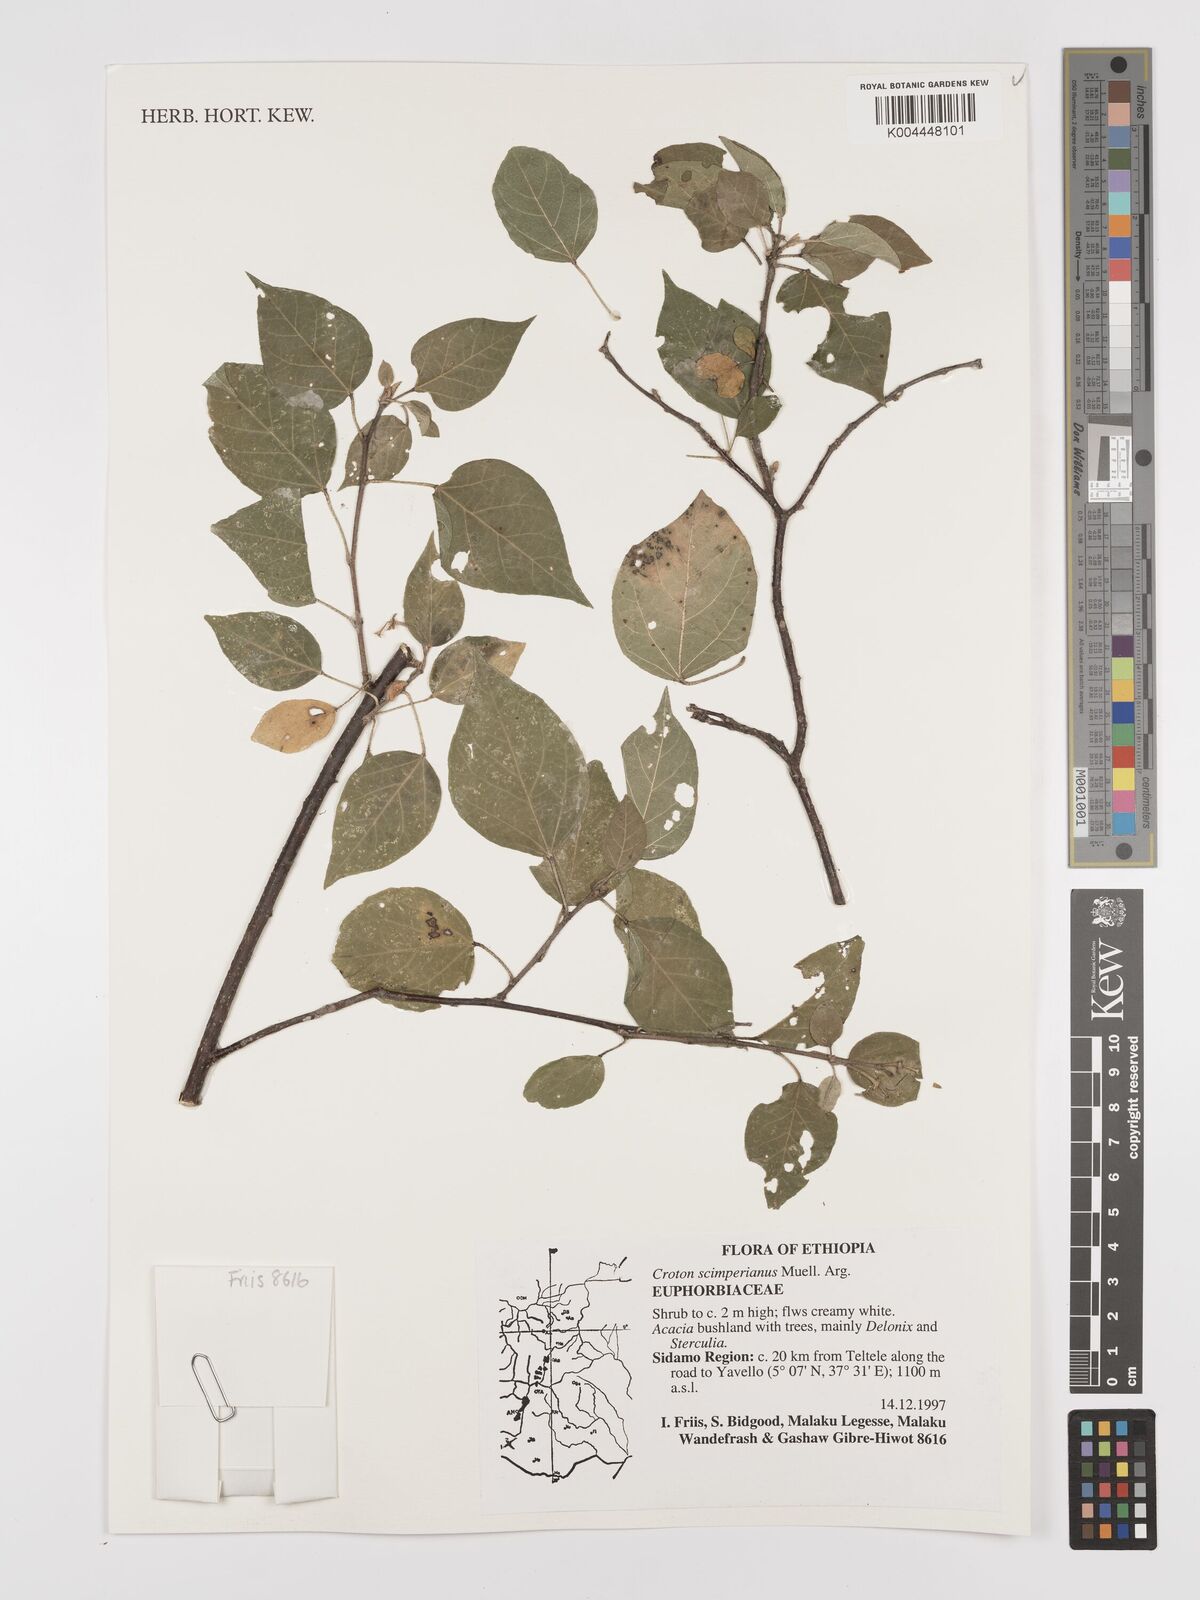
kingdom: Plantae
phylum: Tracheophyta
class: Magnoliopsida
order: Malpighiales
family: Euphorbiaceae
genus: Croton
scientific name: Croton schimperianus
